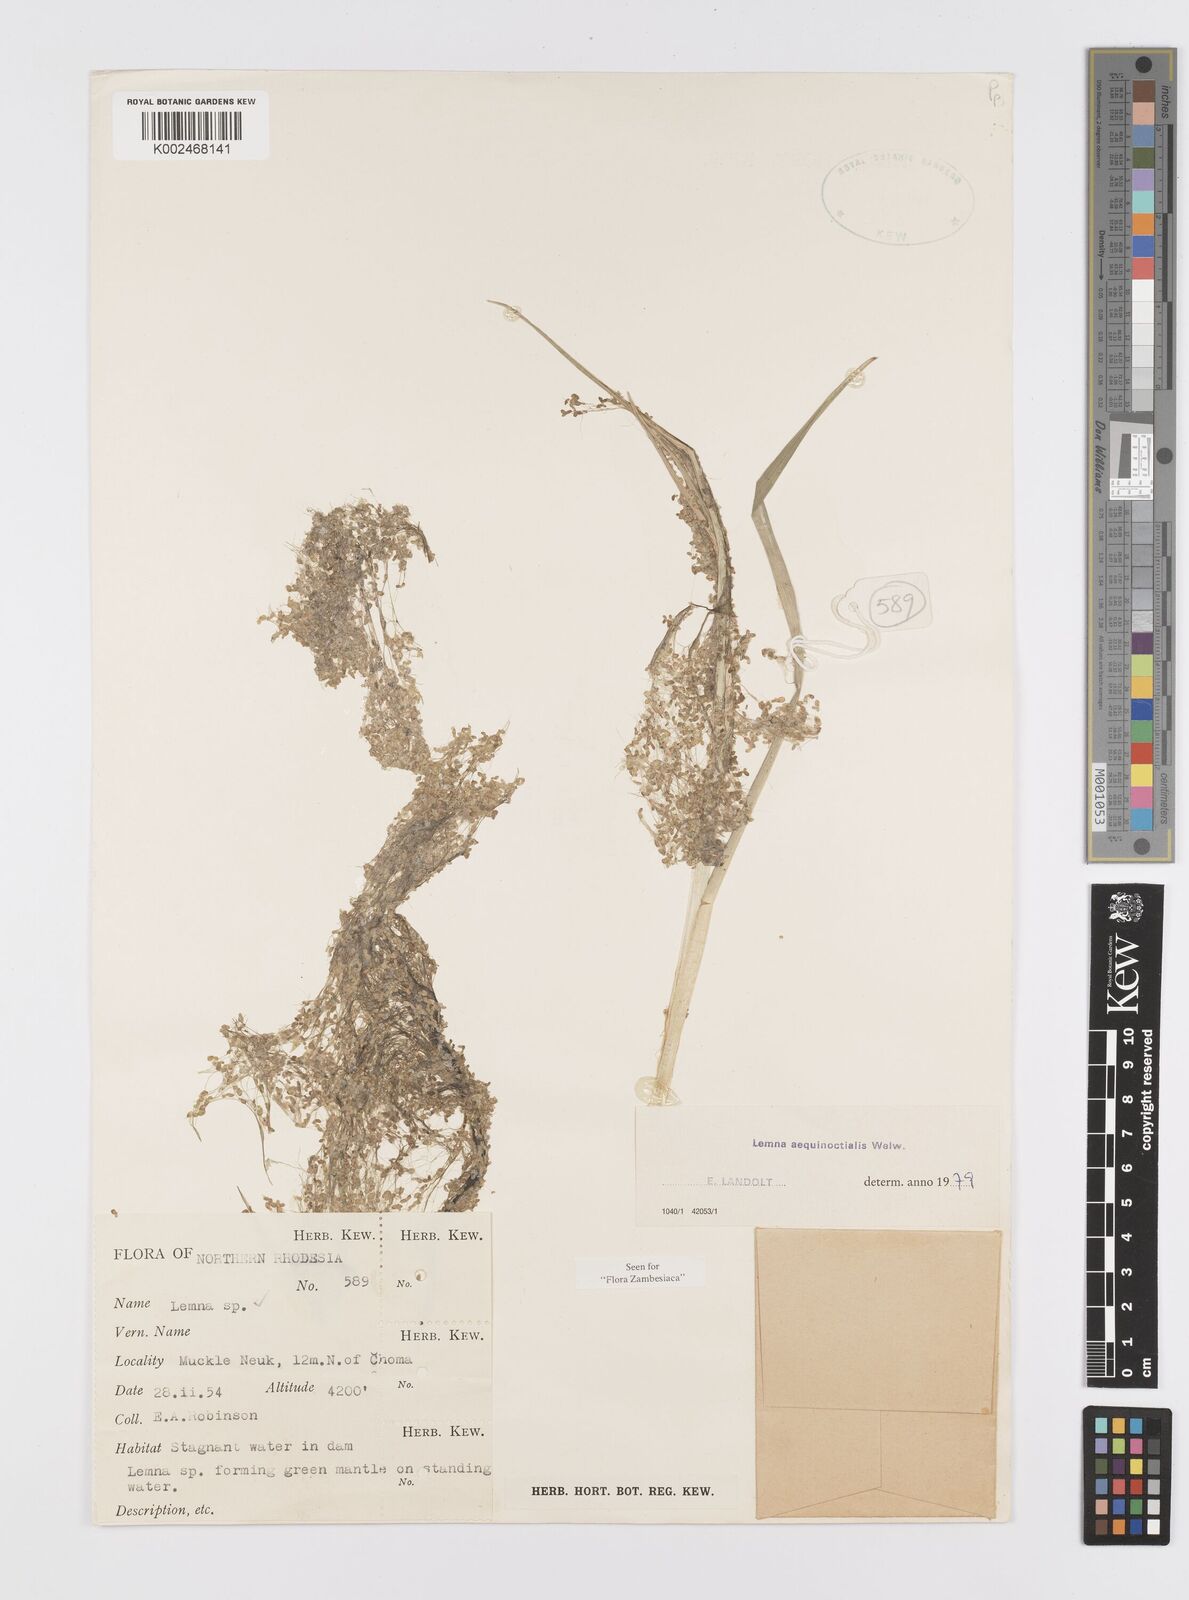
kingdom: Plantae
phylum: Tracheophyta
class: Liliopsida
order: Alismatales
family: Araceae
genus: Lemna
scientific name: Lemna aequinoctialis
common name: Duckweed
